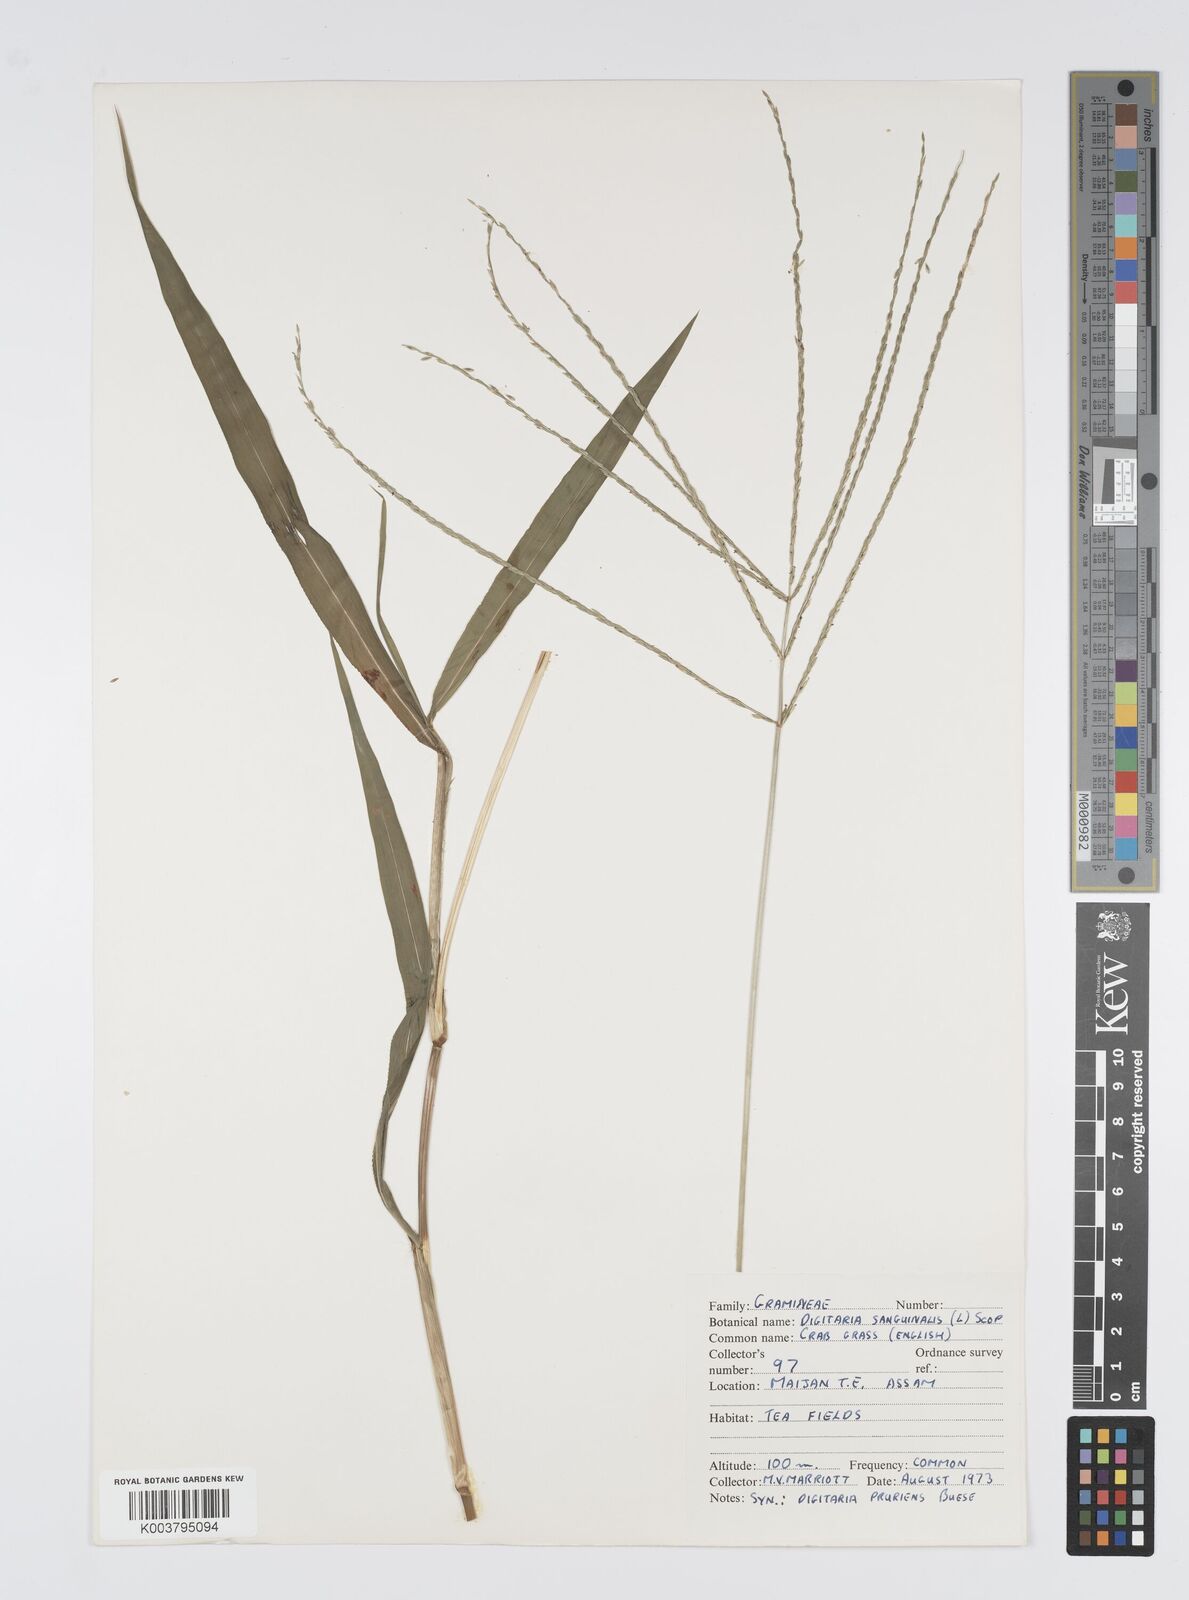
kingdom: Plantae
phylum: Tracheophyta
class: Liliopsida
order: Poales
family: Poaceae
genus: Digitaria
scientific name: Digitaria setigera
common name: East indian crabgrass
